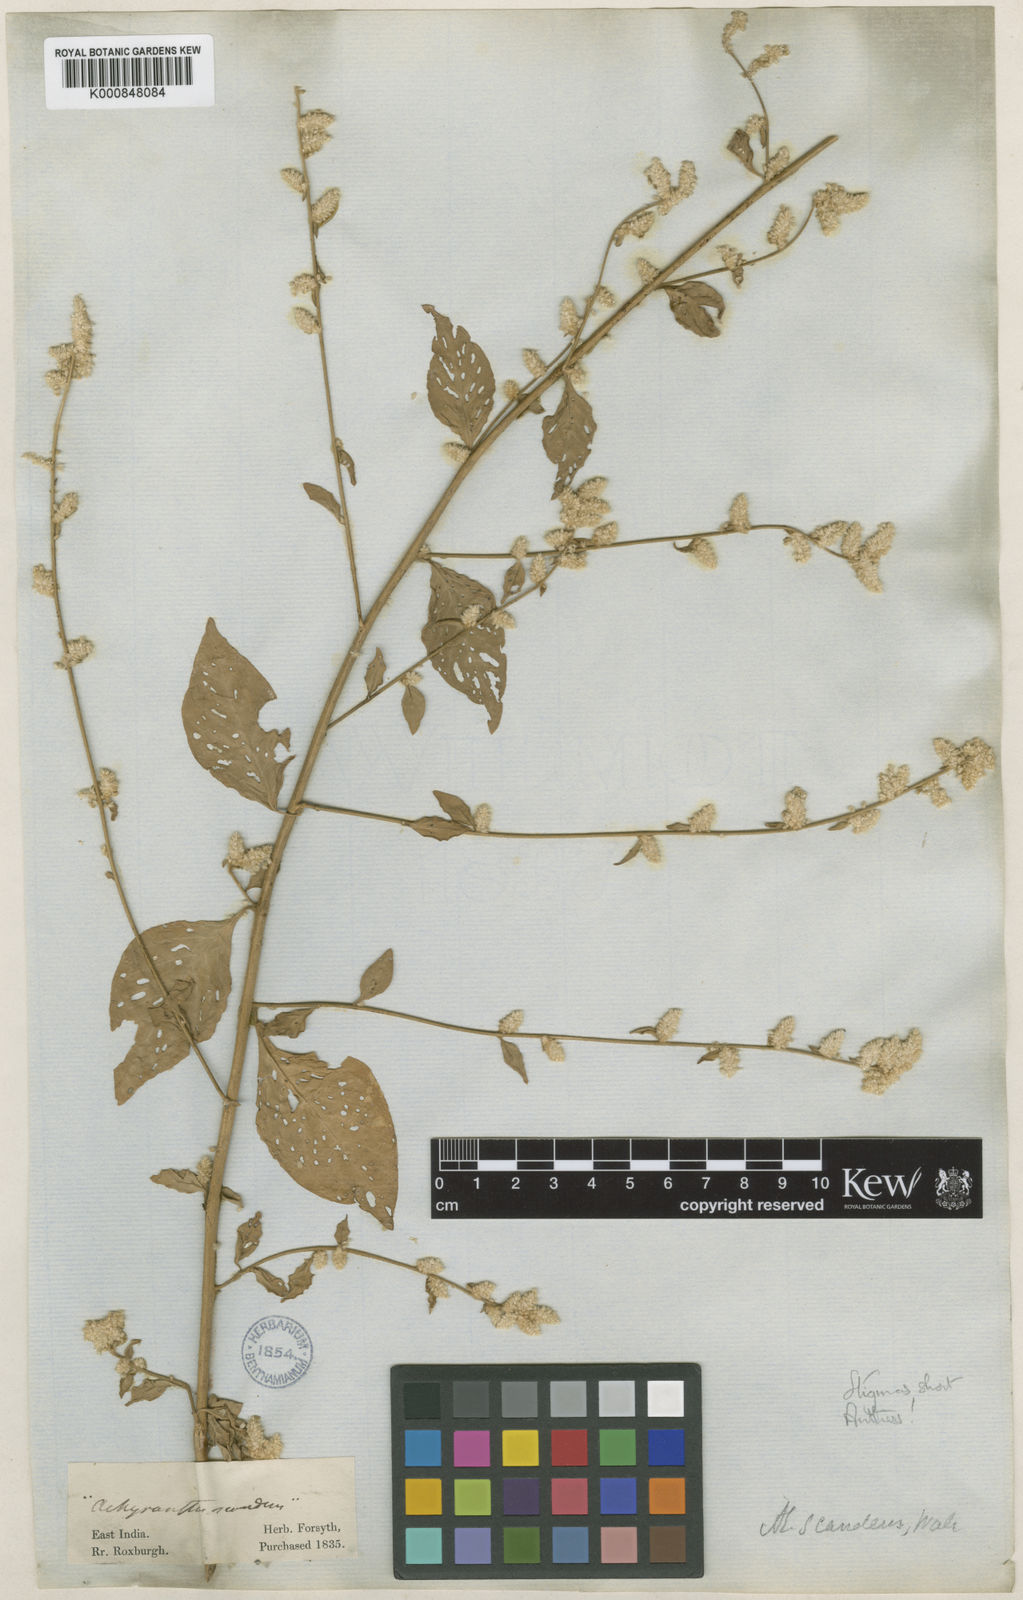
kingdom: Plantae
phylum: Tracheophyta
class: Magnoliopsida
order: Caryophyllales
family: Amaranthaceae
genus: Ouret
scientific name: Ouret sanguinolenta
